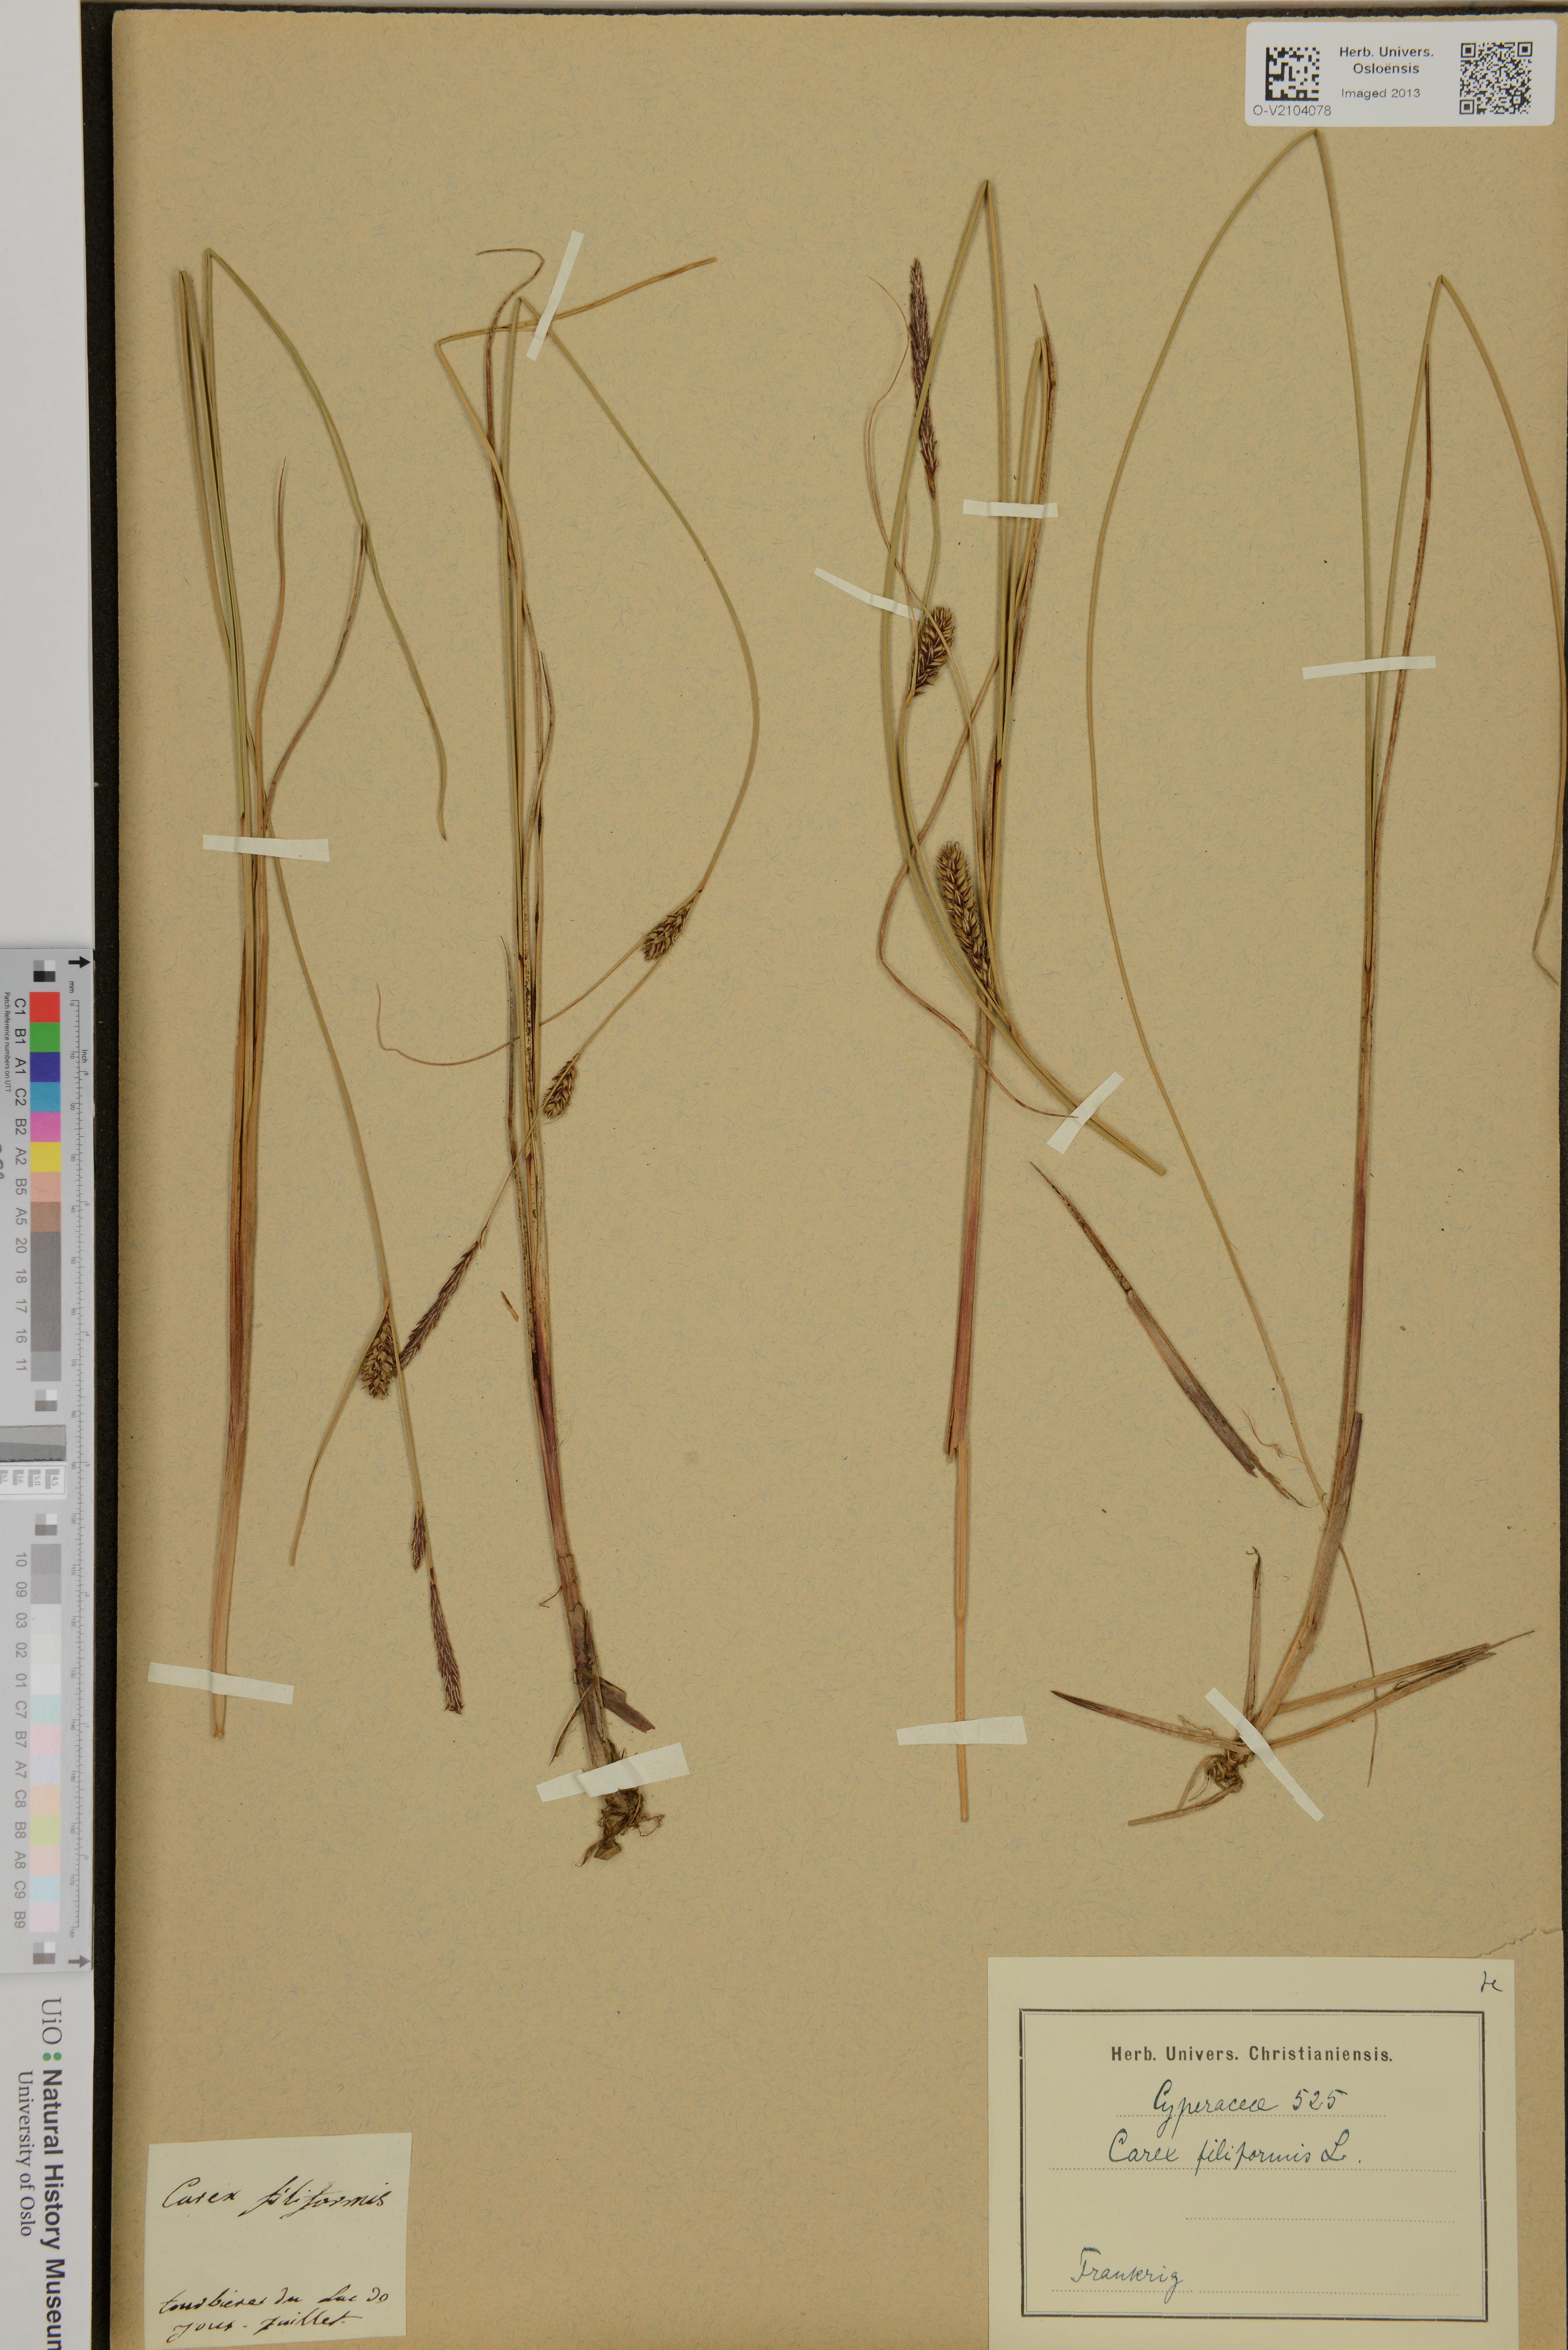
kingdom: Plantae
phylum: Tracheophyta
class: Liliopsida
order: Poales
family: Cyperaceae
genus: Carex
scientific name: Carex montana
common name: Soft-leaved sedge
